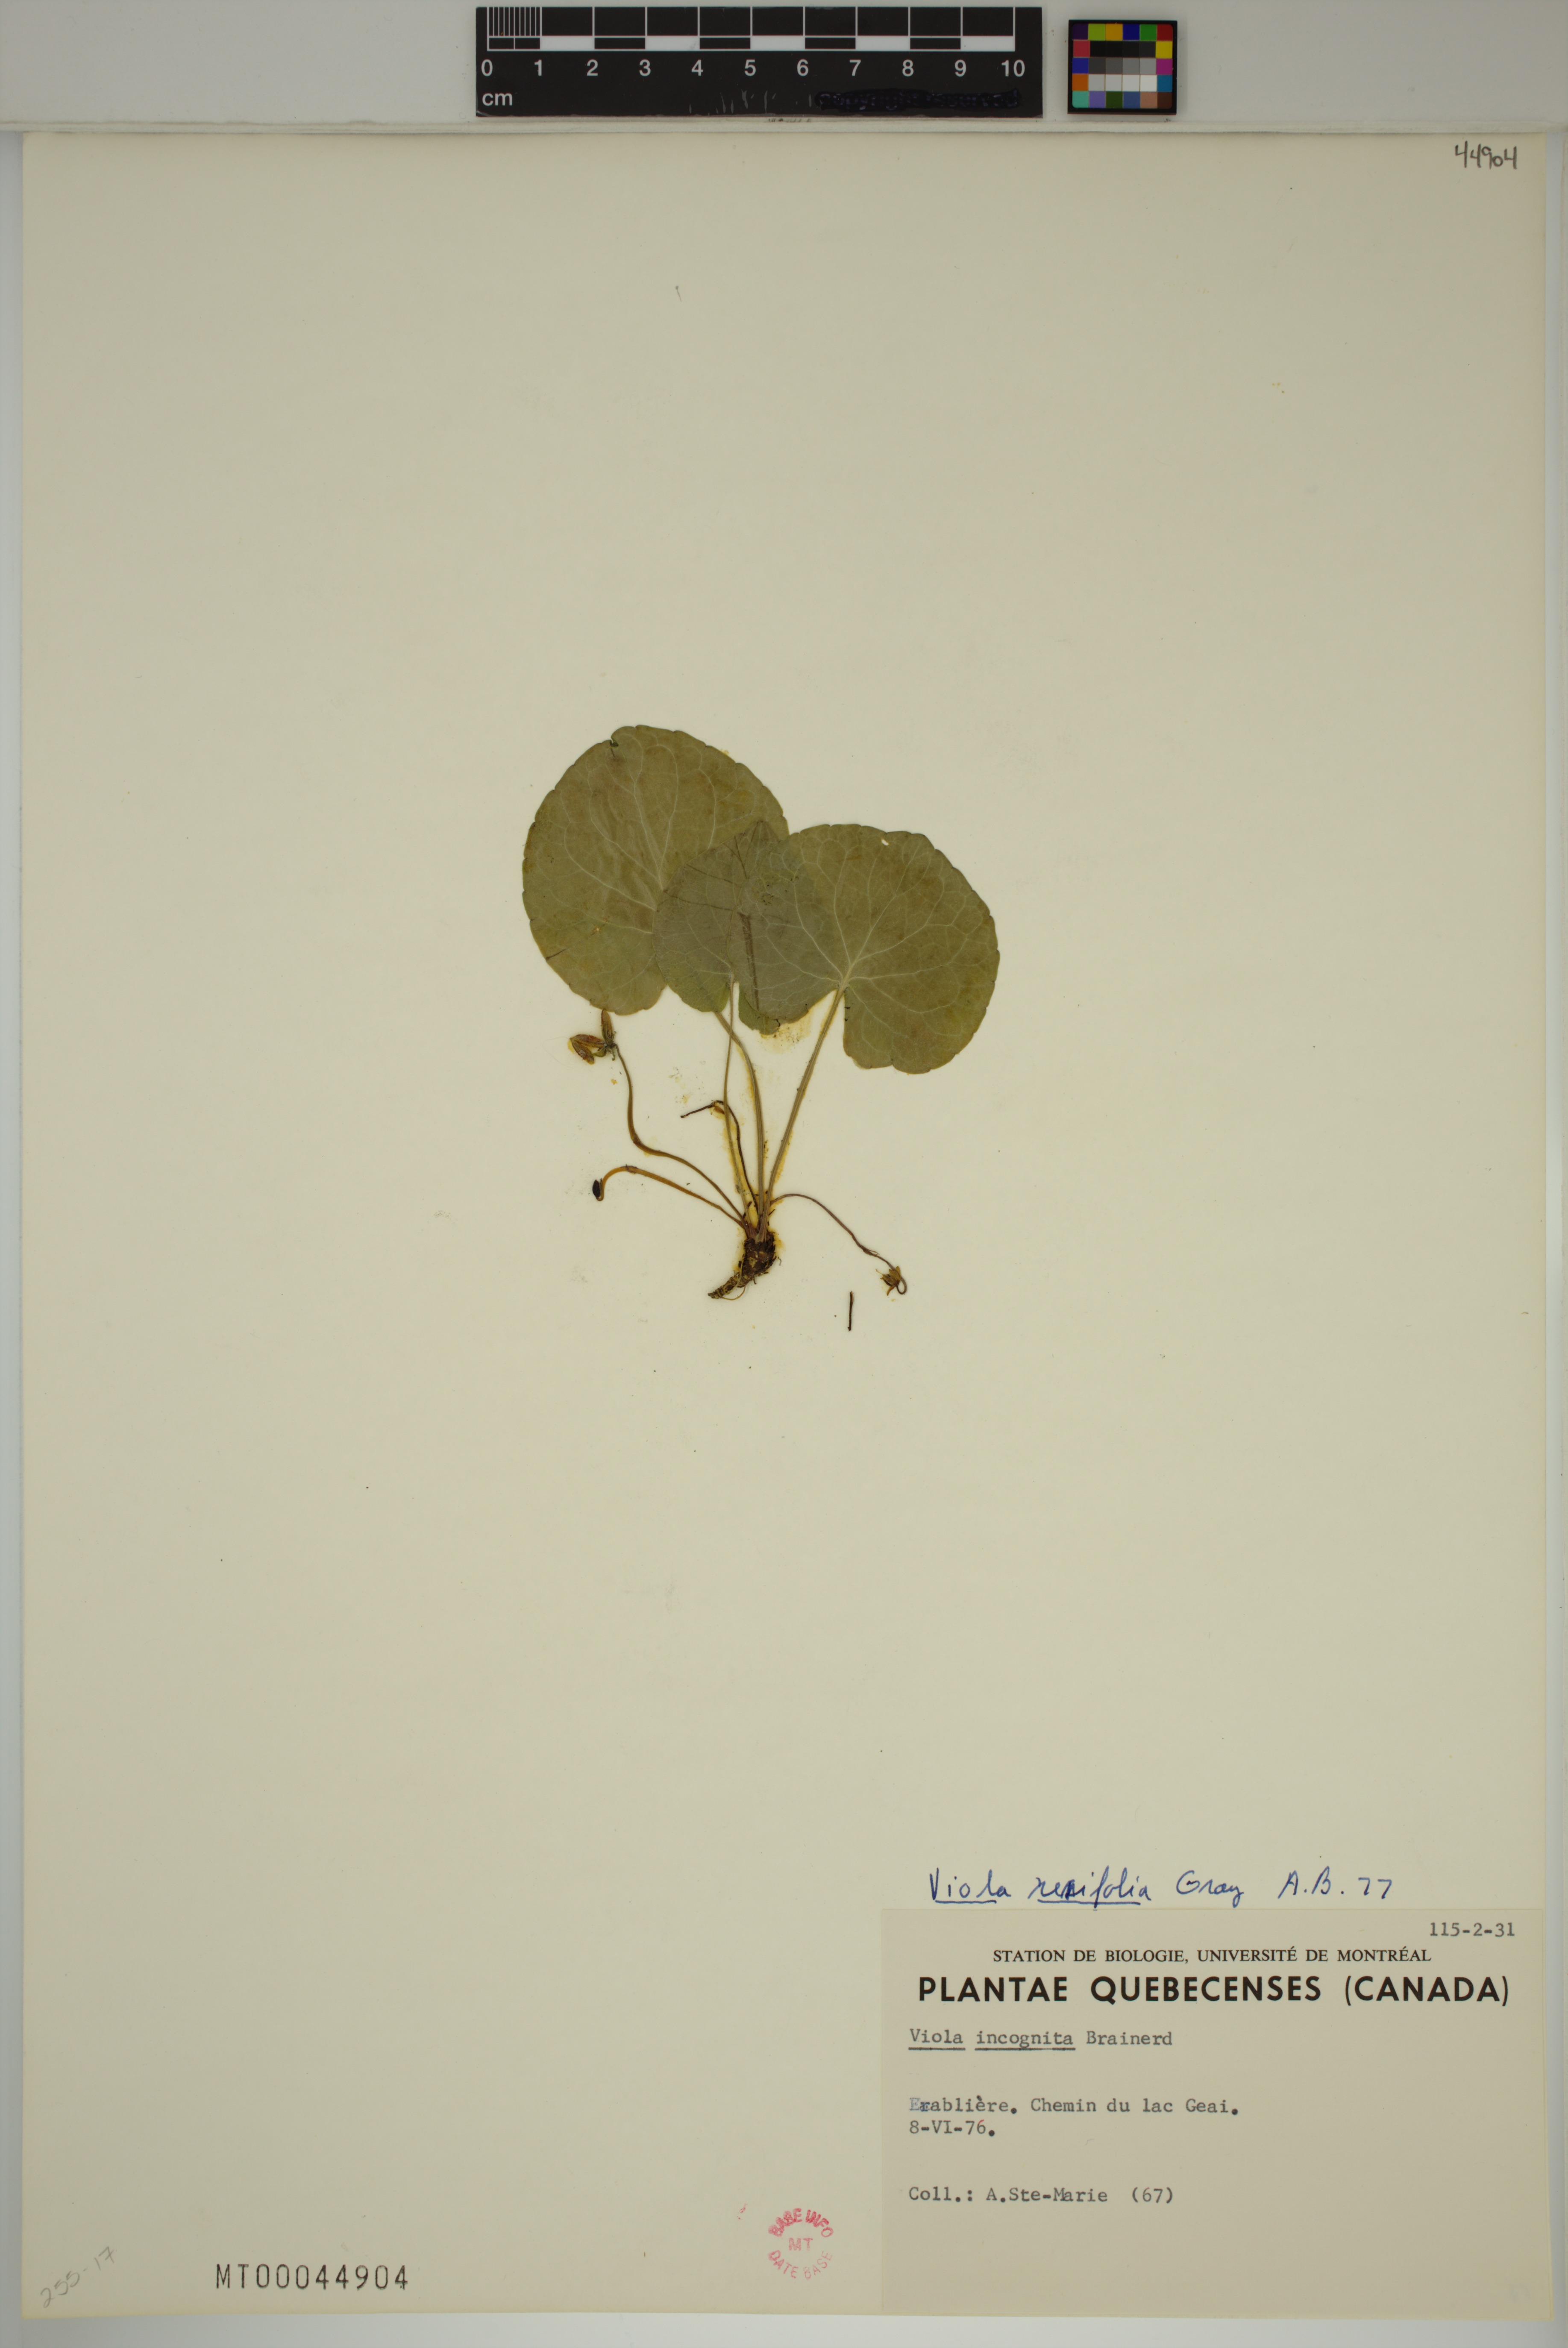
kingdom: Plantae
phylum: Tracheophyta
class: Magnoliopsida
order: Malpighiales
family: Violaceae
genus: Viola
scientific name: Viola renifolia
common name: Kidney-leaf violet
